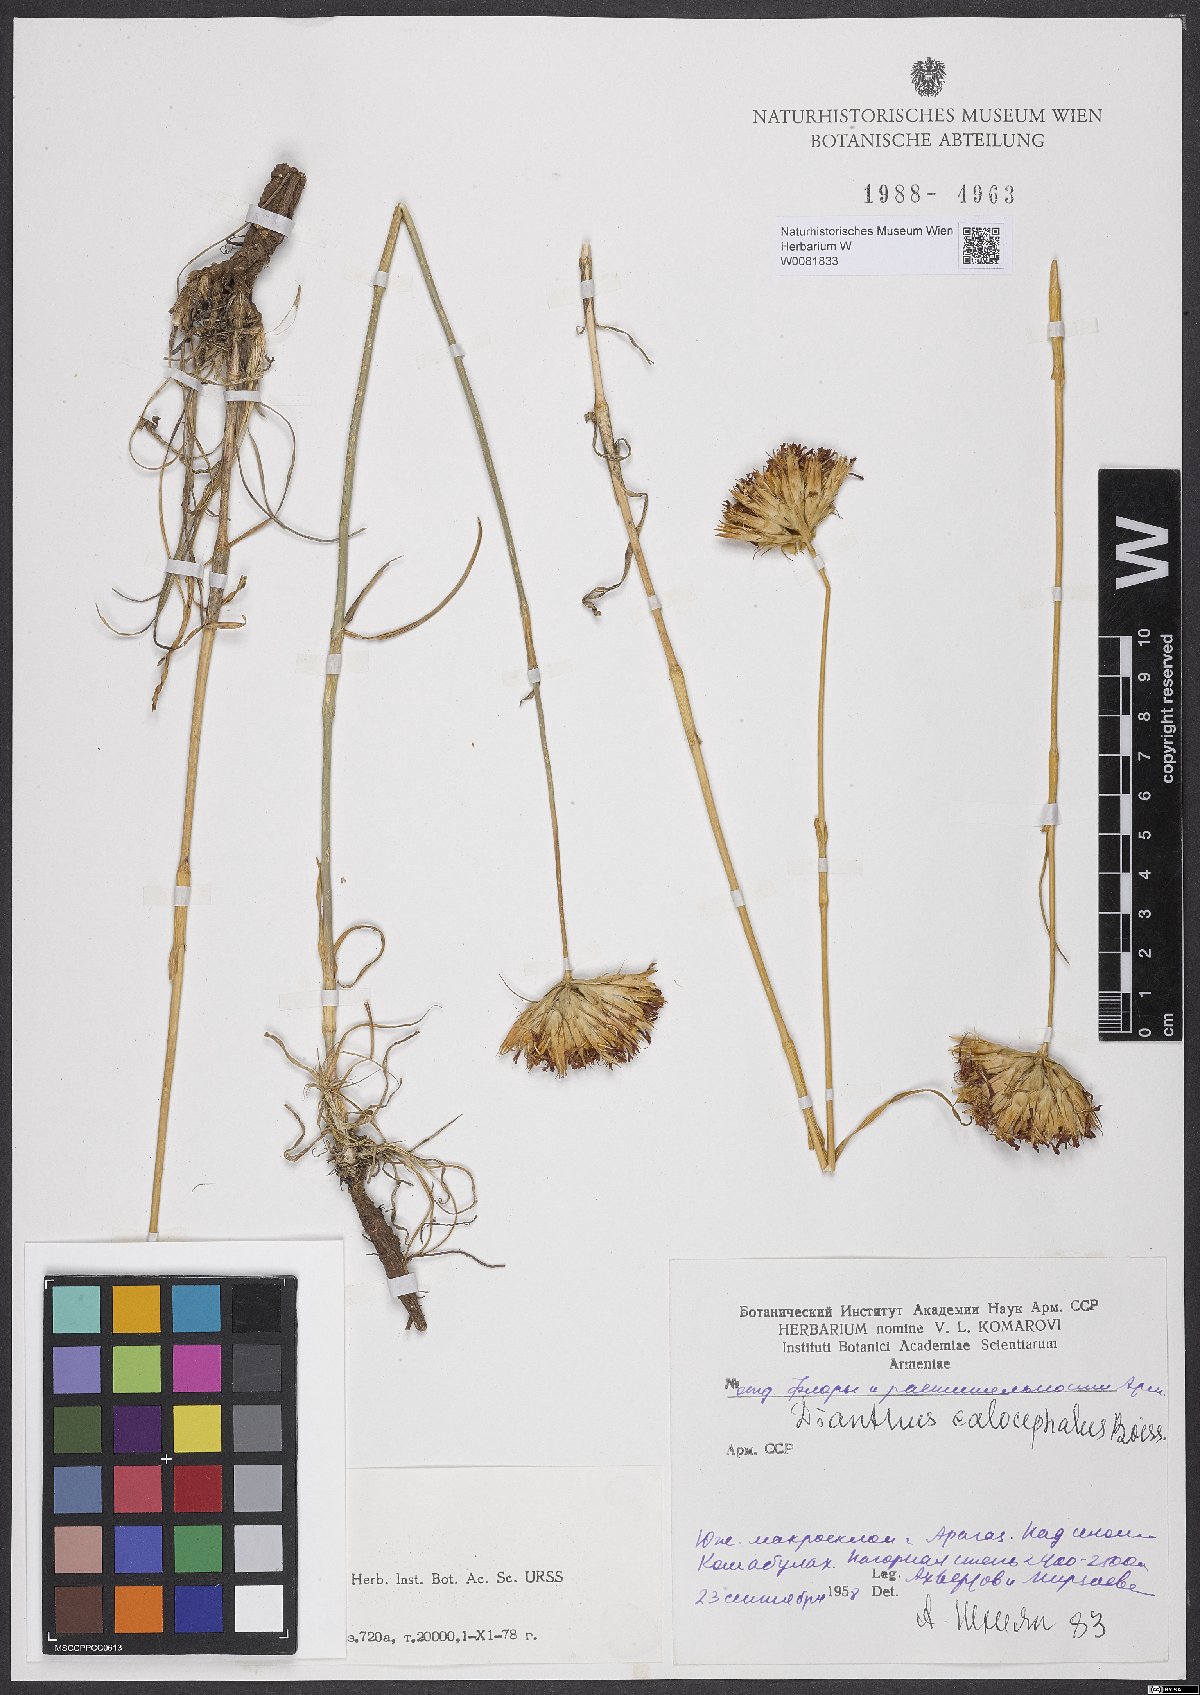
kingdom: Plantae
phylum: Tracheophyta
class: Magnoliopsida
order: Caryophyllales
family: Caryophyllaceae
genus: Dianthus
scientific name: Dianthus cruentus
